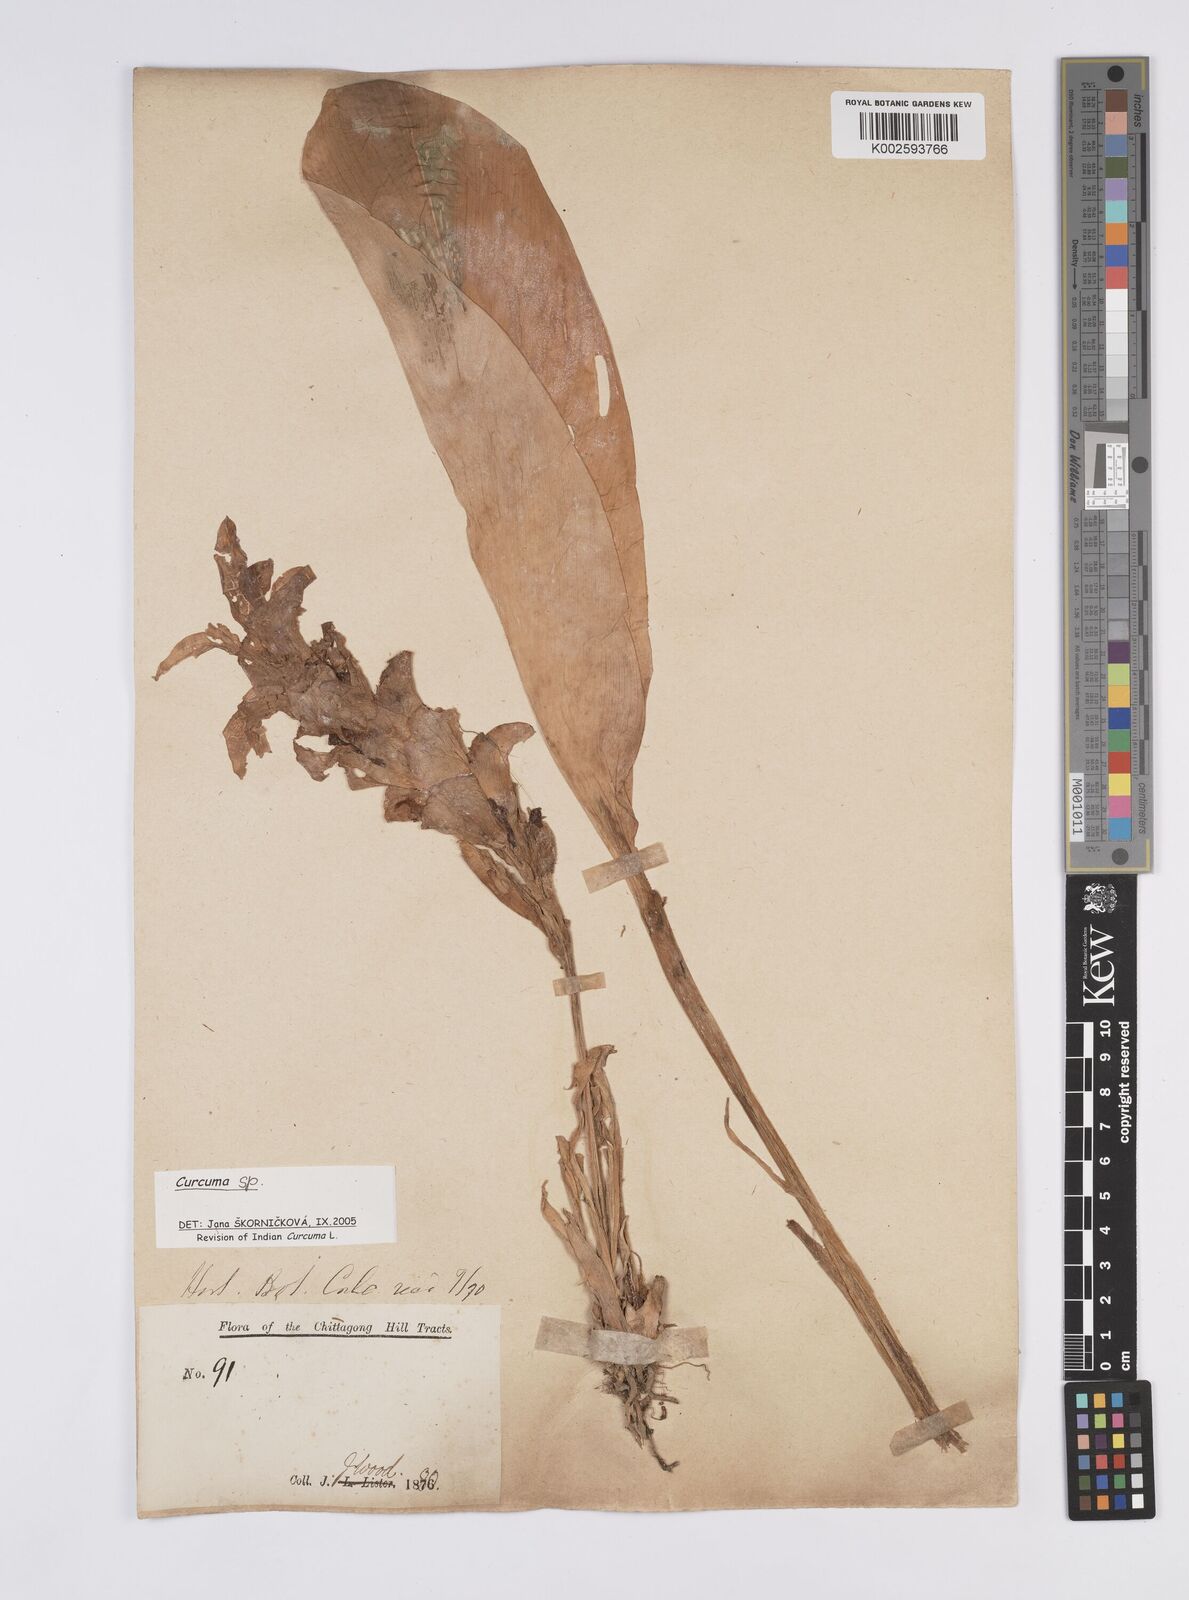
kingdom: Plantae
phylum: Tracheophyta
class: Liliopsida
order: Zingiberales
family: Zingiberaceae
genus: Curcuma
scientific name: Curcuma
